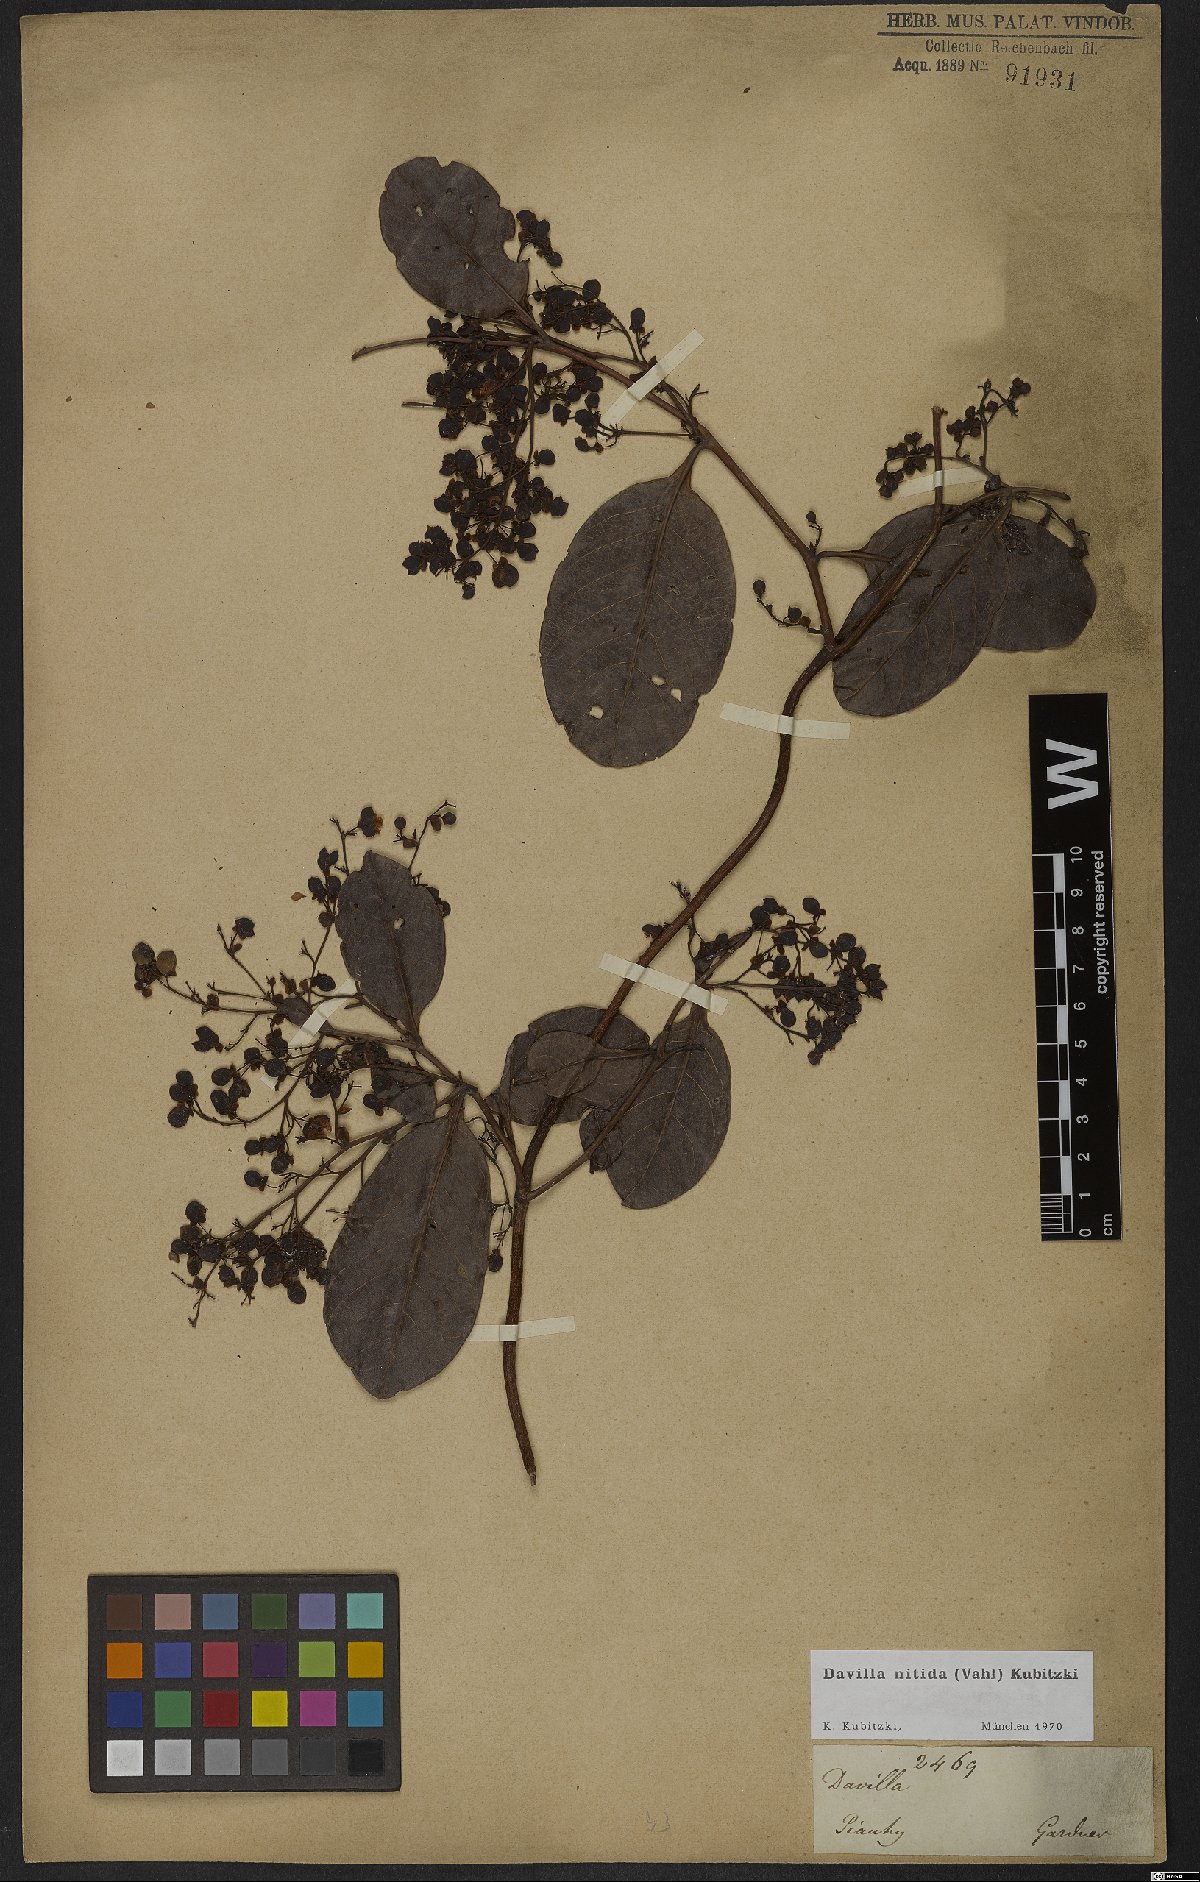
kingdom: Plantae
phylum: Tracheophyta
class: Magnoliopsida
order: Dilleniales
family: Dilleniaceae
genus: Davilla
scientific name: Davilla nitida
